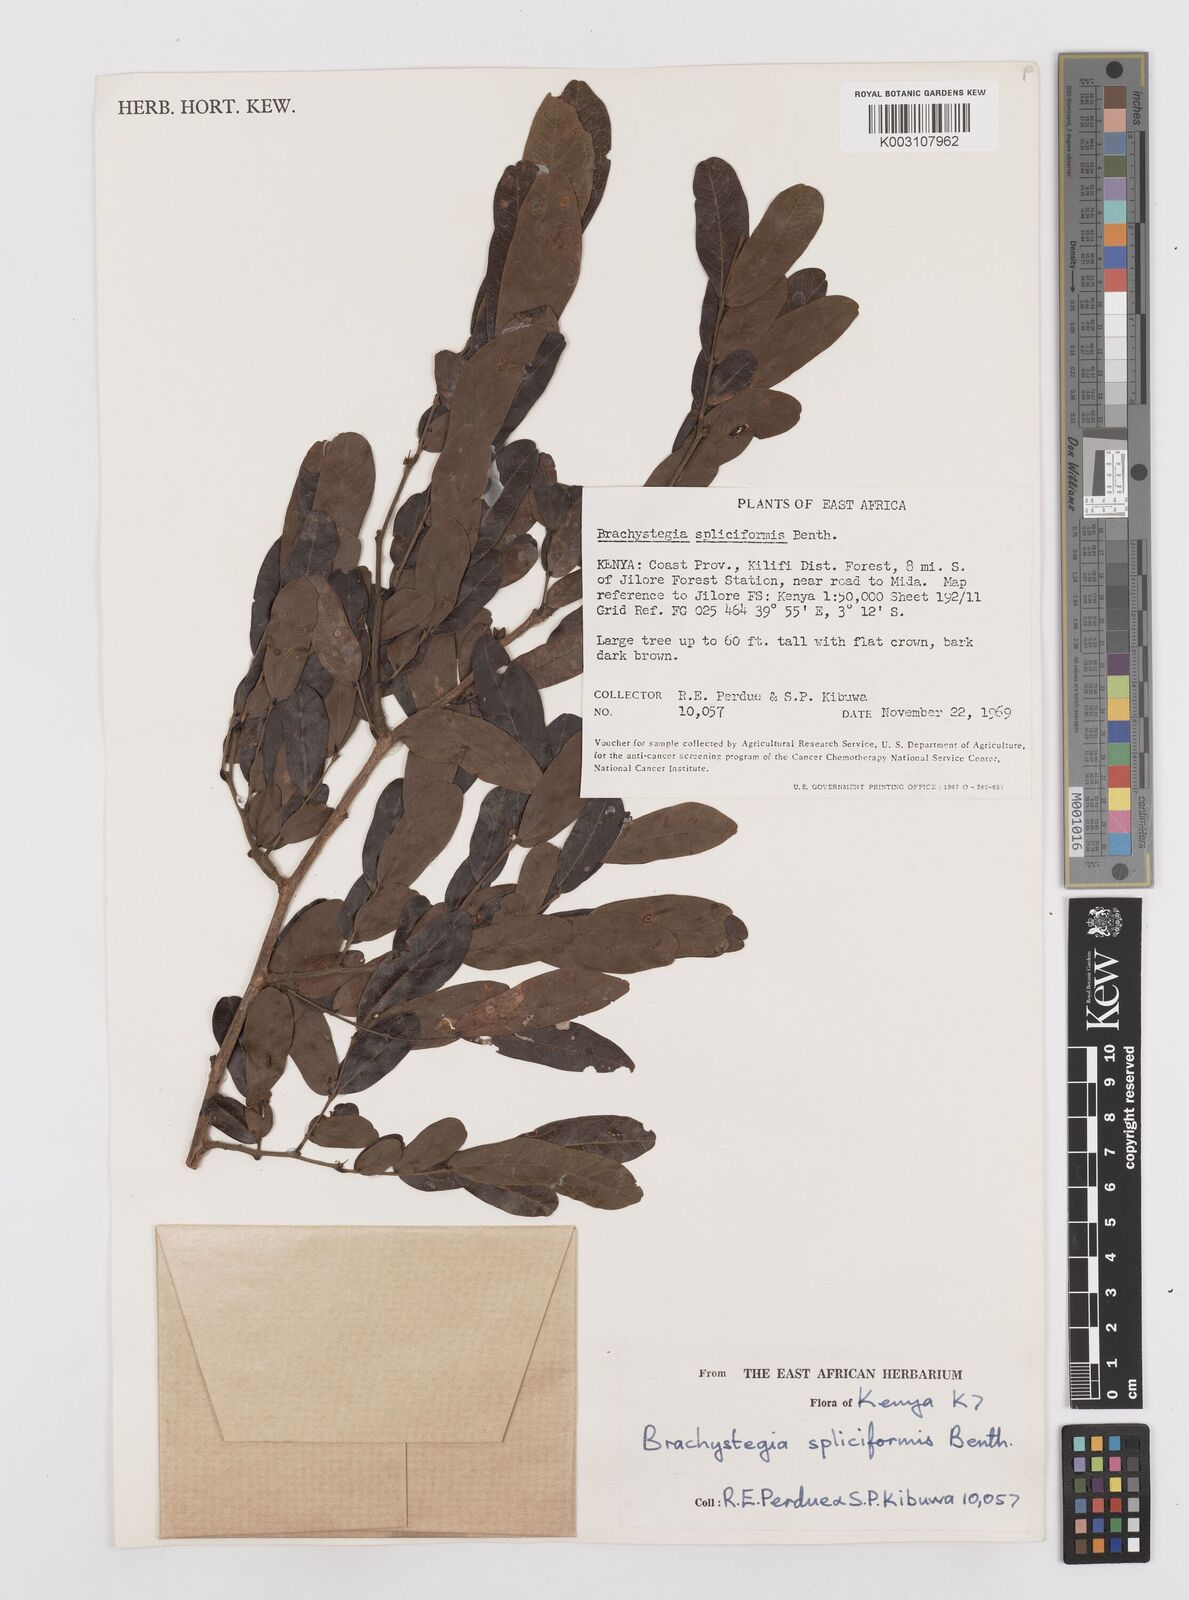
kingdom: Plantae
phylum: Tracheophyta
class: Magnoliopsida
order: Fabales
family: Fabaceae
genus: Brachystegia
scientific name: Brachystegia spiciformis
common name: Zebrawood
